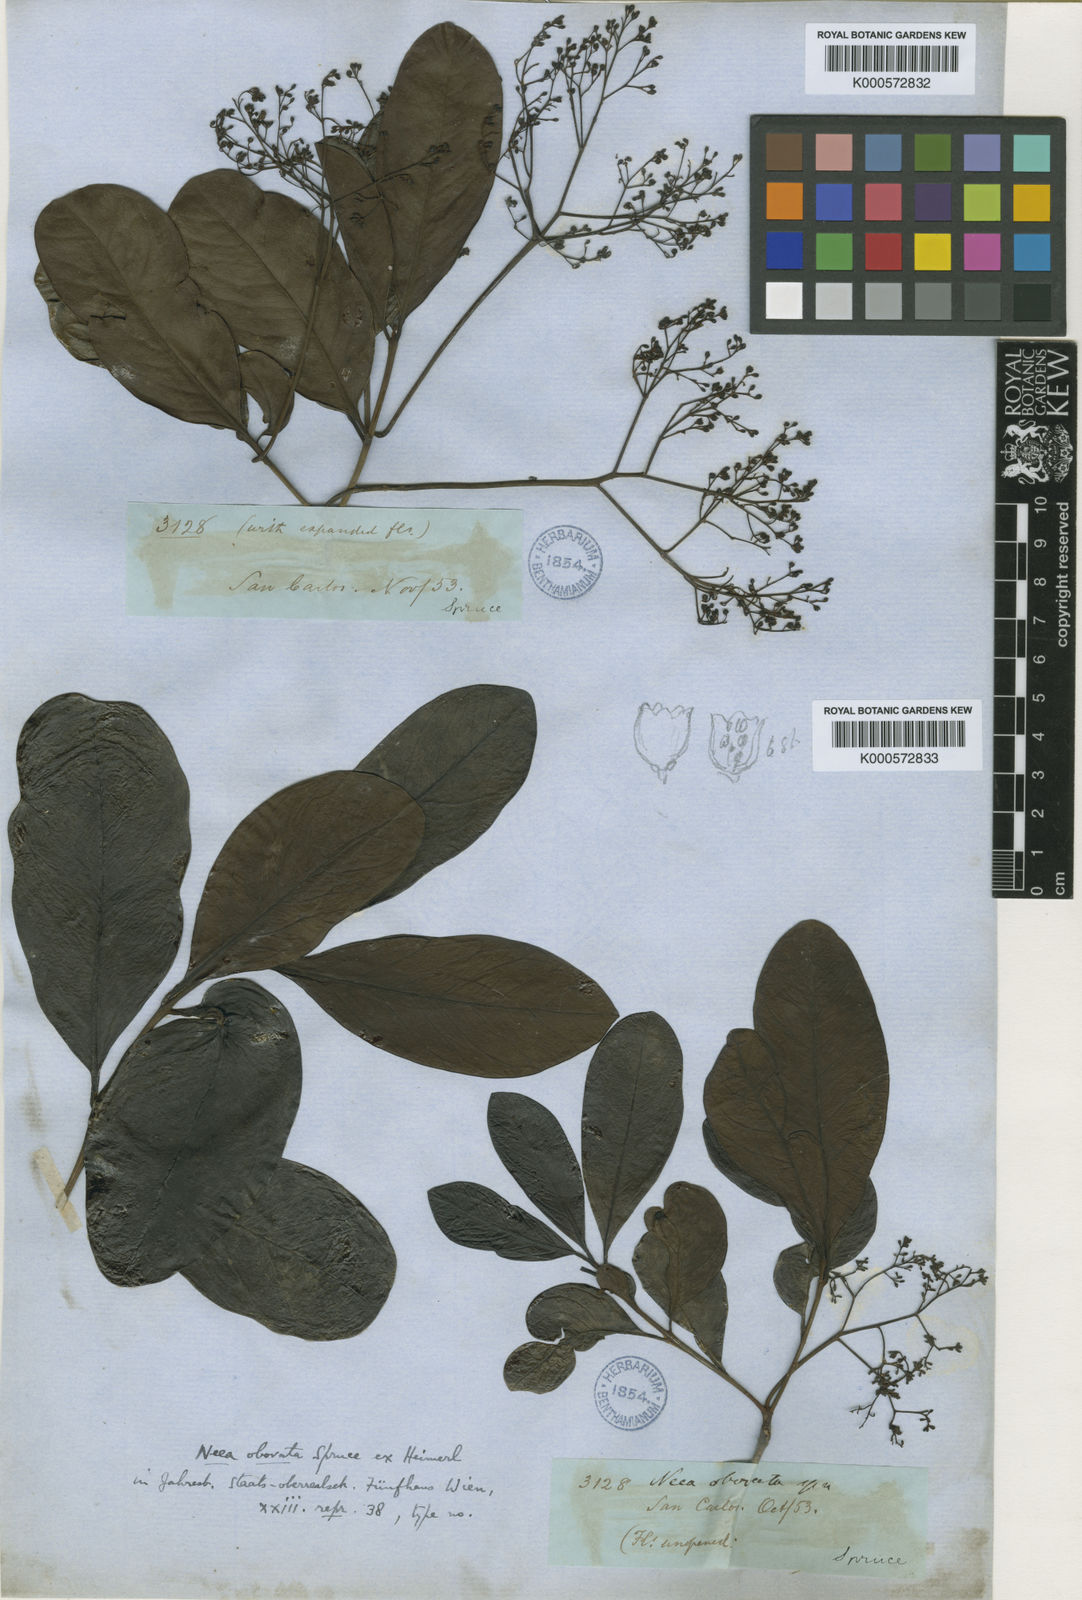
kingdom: Plantae
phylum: Tracheophyta
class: Magnoliopsida
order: Caryophyllales
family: Nyctaginaceae
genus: Neea
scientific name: Neea obovata
